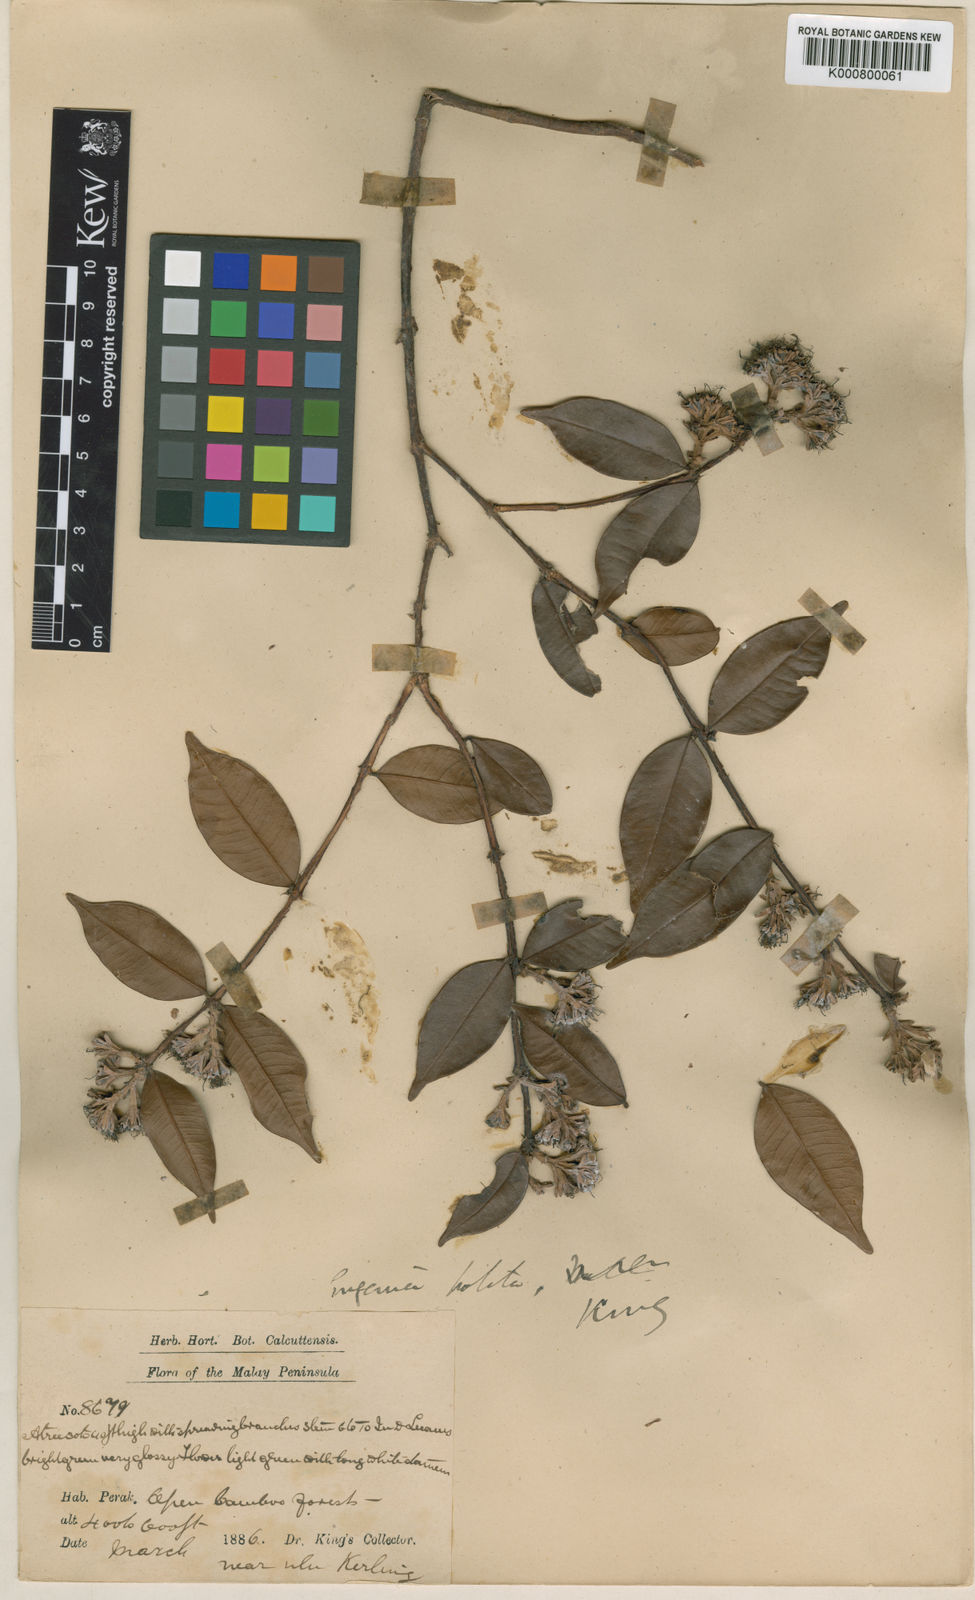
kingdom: Plantae
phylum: Tracheophyta
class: Magnoliopsida
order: Myrtales
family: Myrtaceae
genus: Syzygium
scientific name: Syzygium politum
